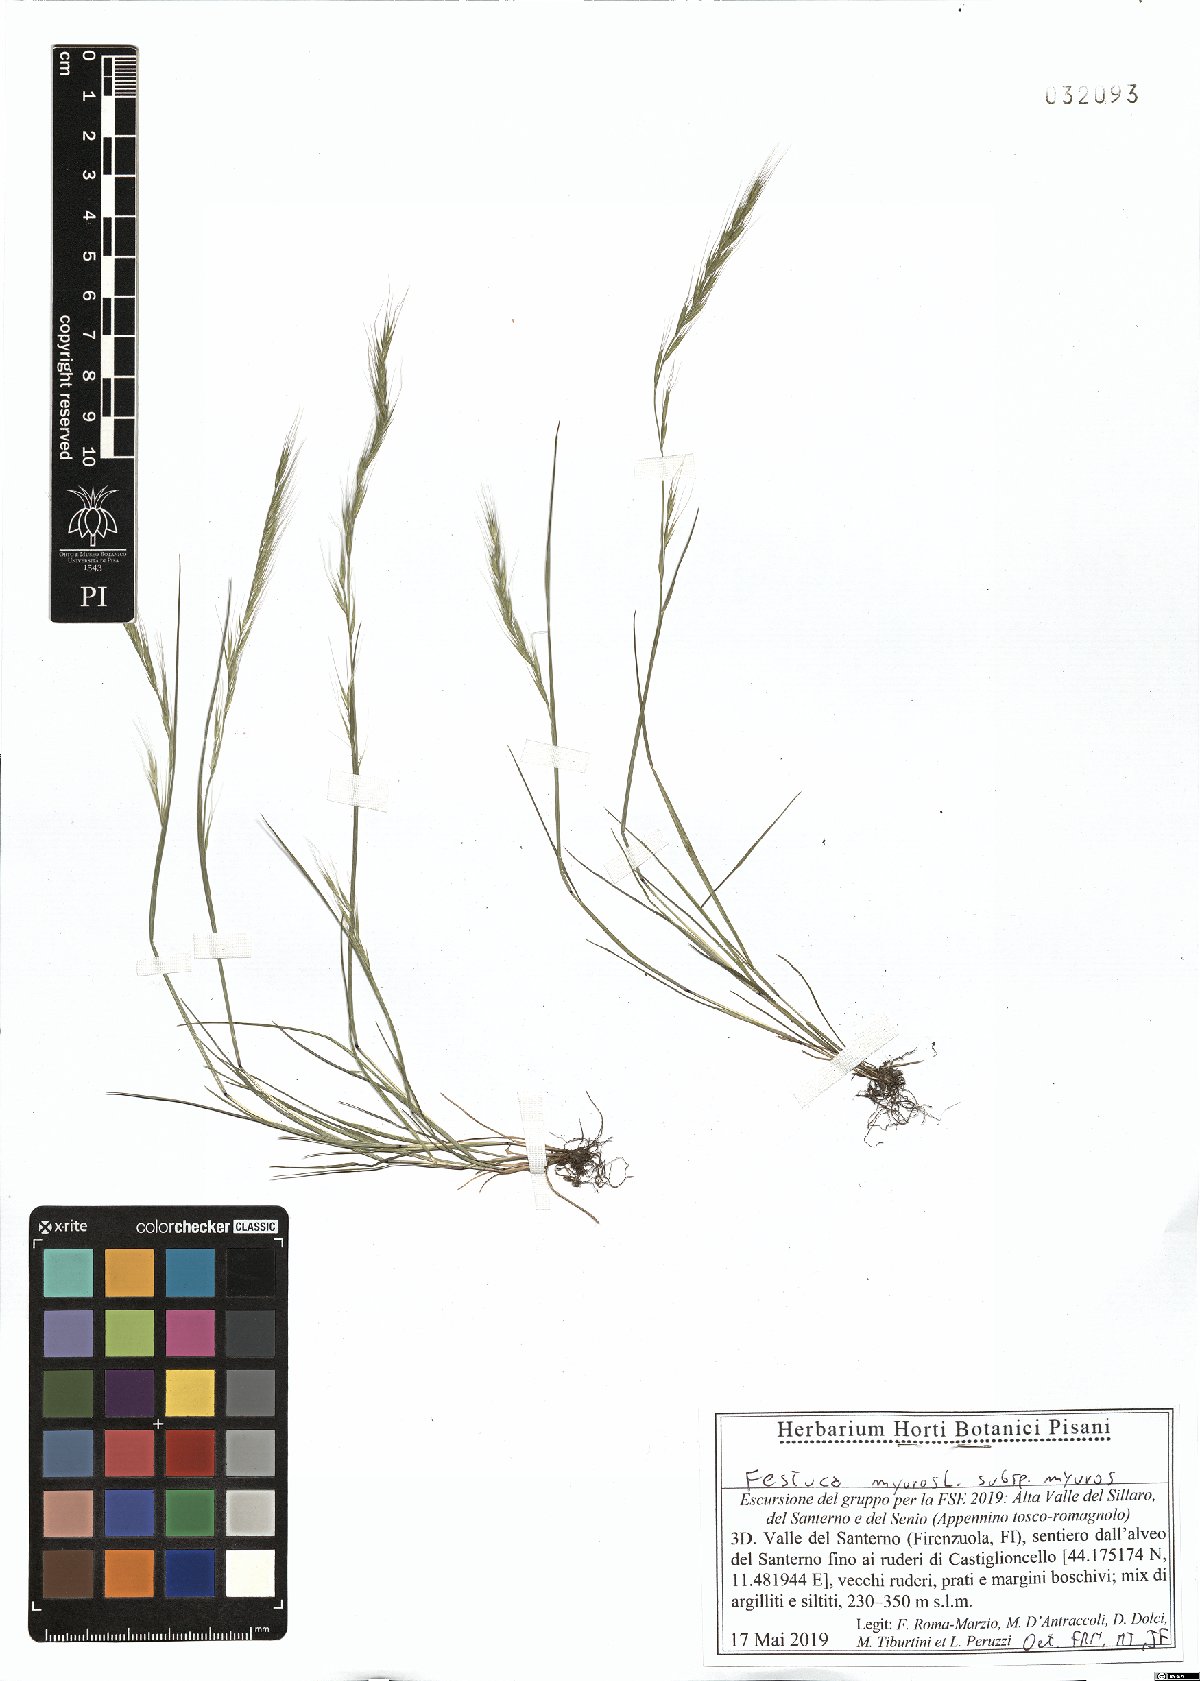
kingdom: Plantae
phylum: Tracheophyta
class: Liliopsida
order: Poales
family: Poaceae
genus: Festuca
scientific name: Festuca myuros
